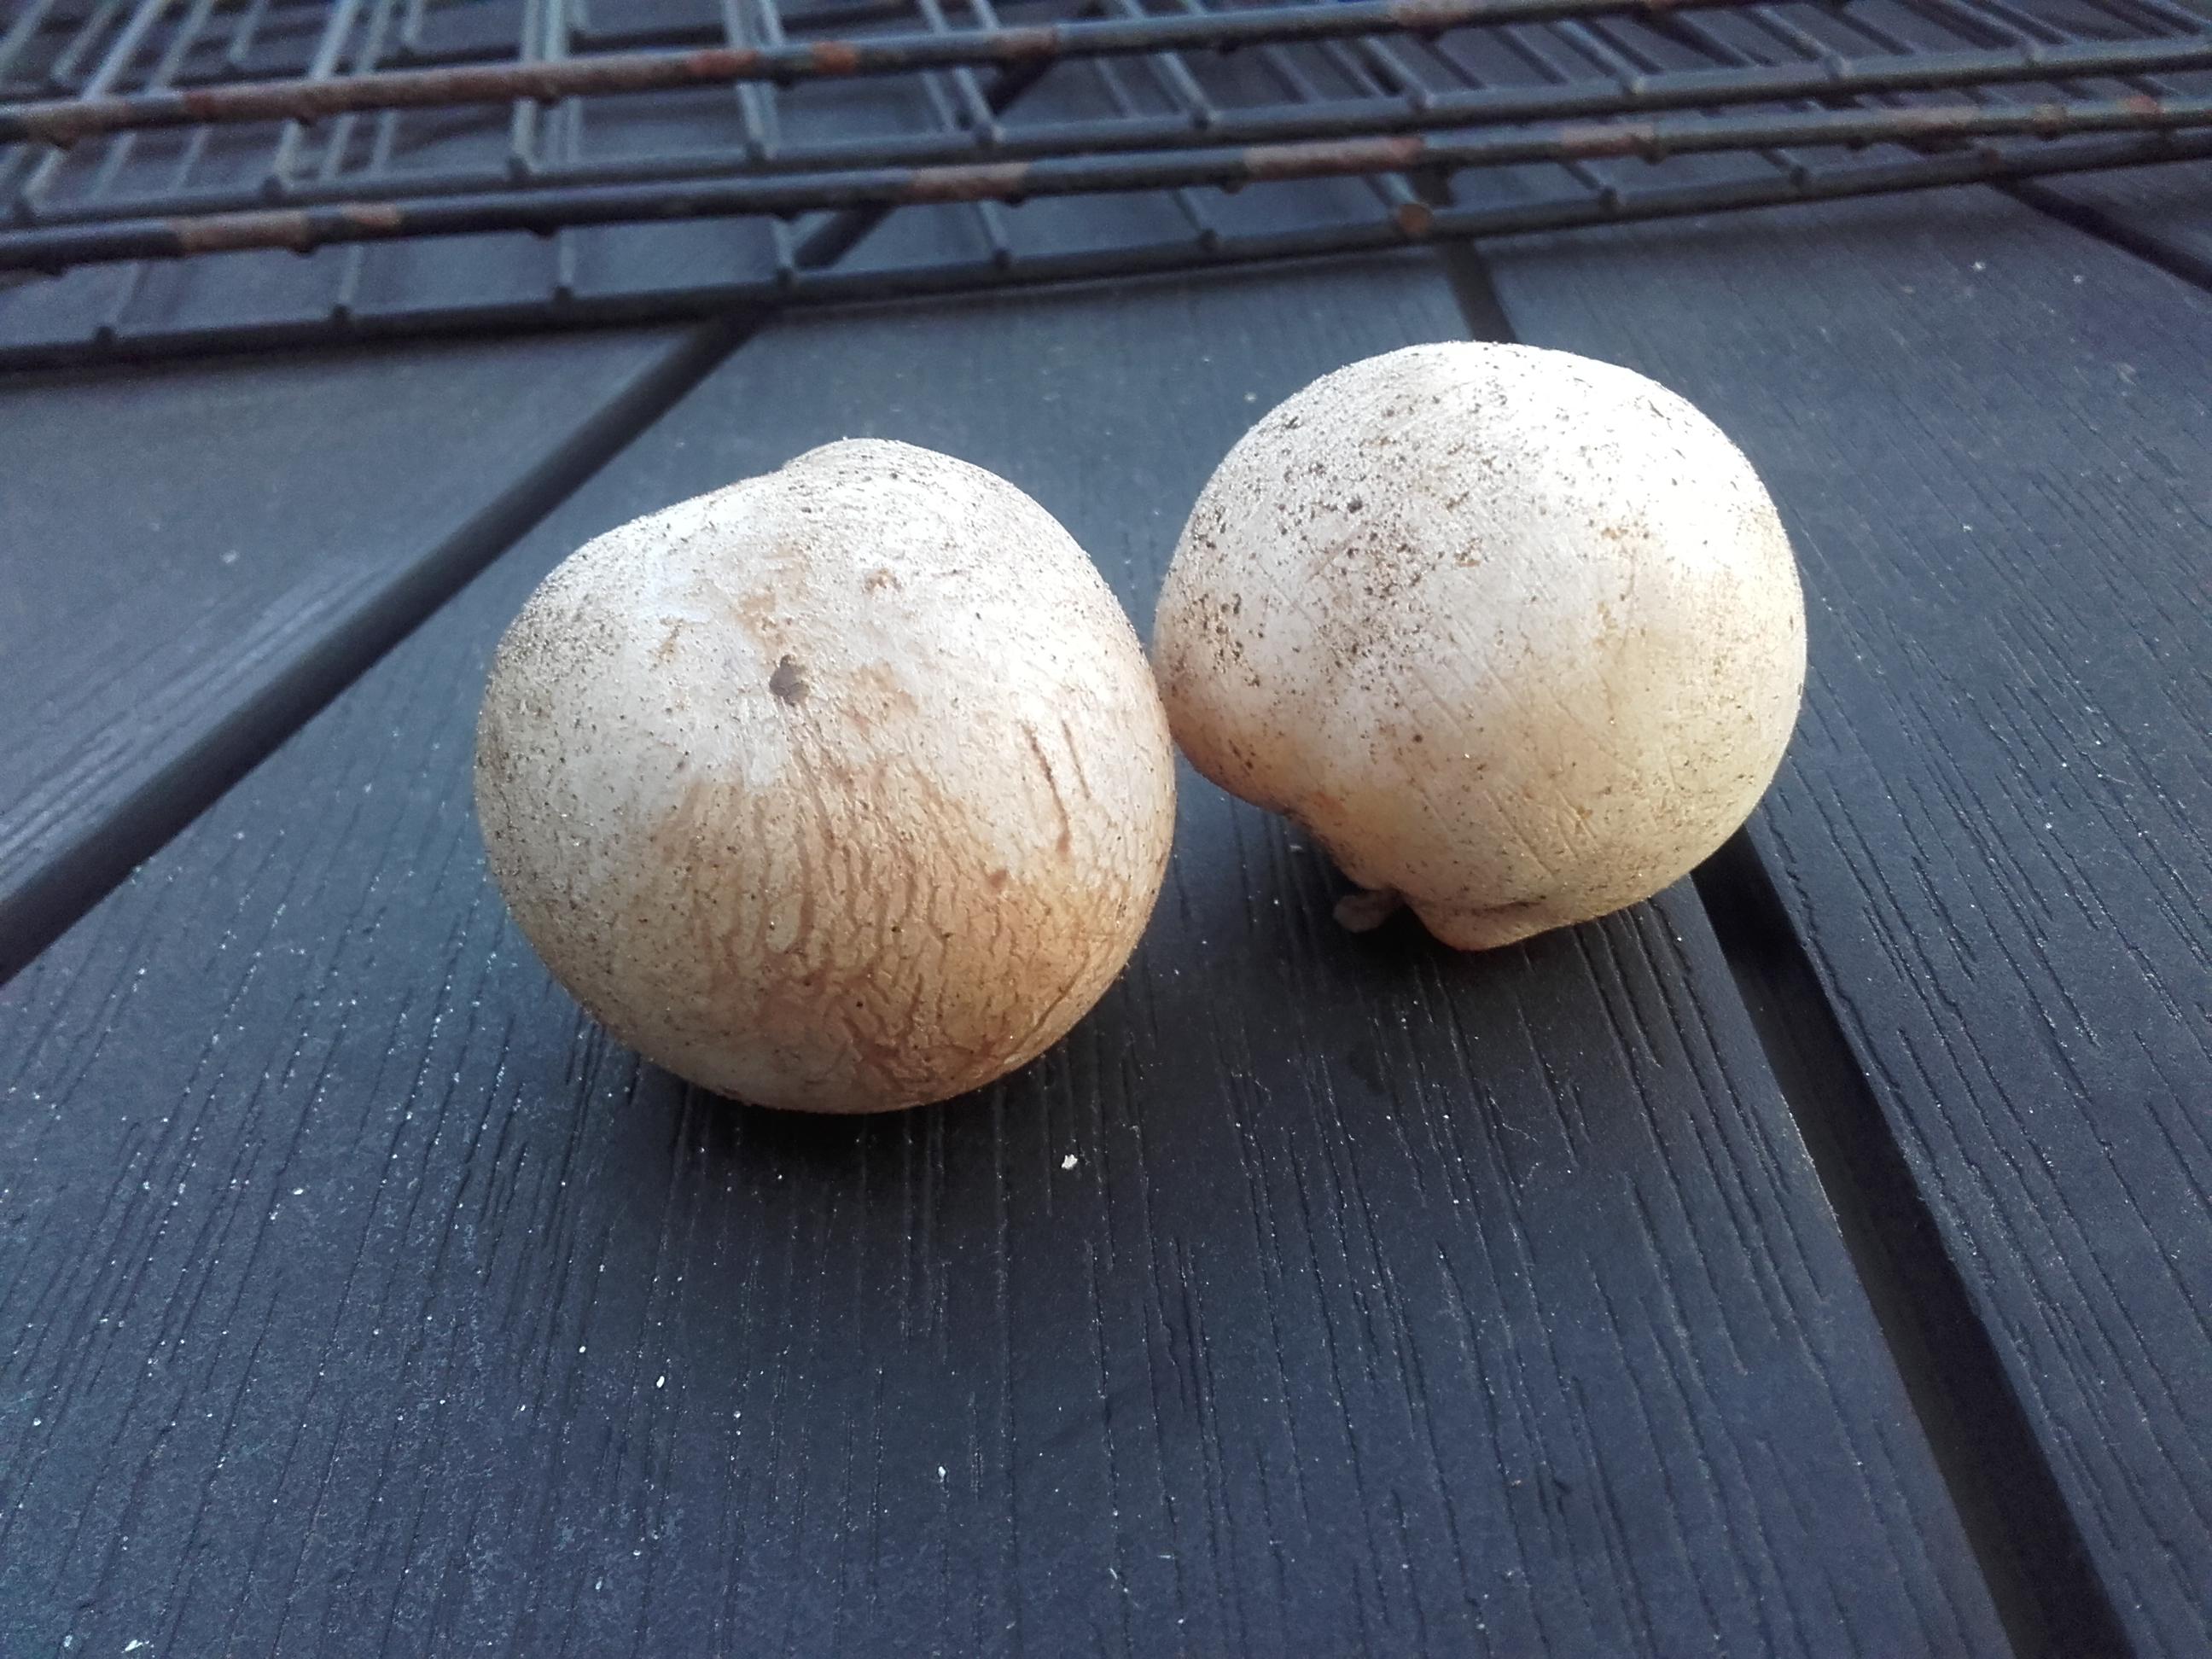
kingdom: Fungi
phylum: Basidiomycota
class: Agaricomycetes
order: Phallales
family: Phallaceae
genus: Phallus
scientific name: Phallus impudicus
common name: almindelig stinksvamp
